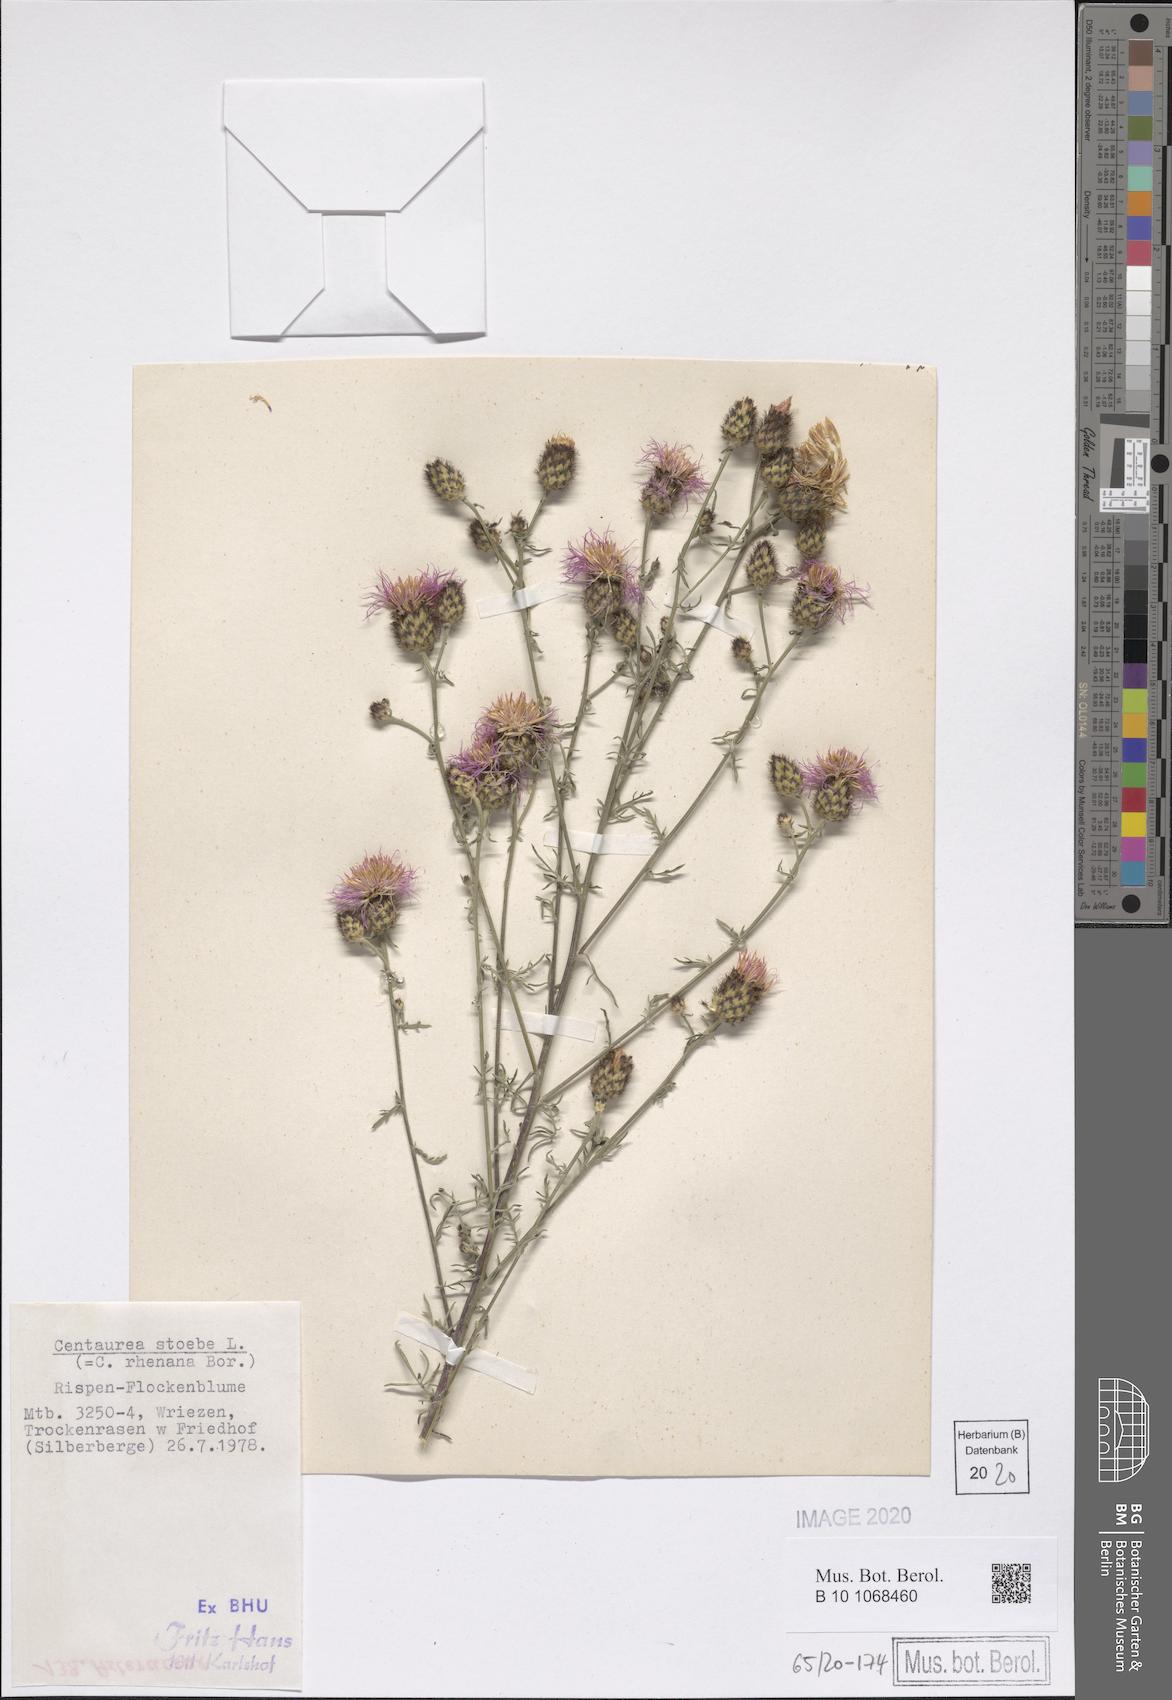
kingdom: Plantae
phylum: Tracheophyta
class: Magnoliopsida
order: Asterales
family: Asteraceae
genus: Centaurea
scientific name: Centaurea stoebe
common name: Spotted knapweed
